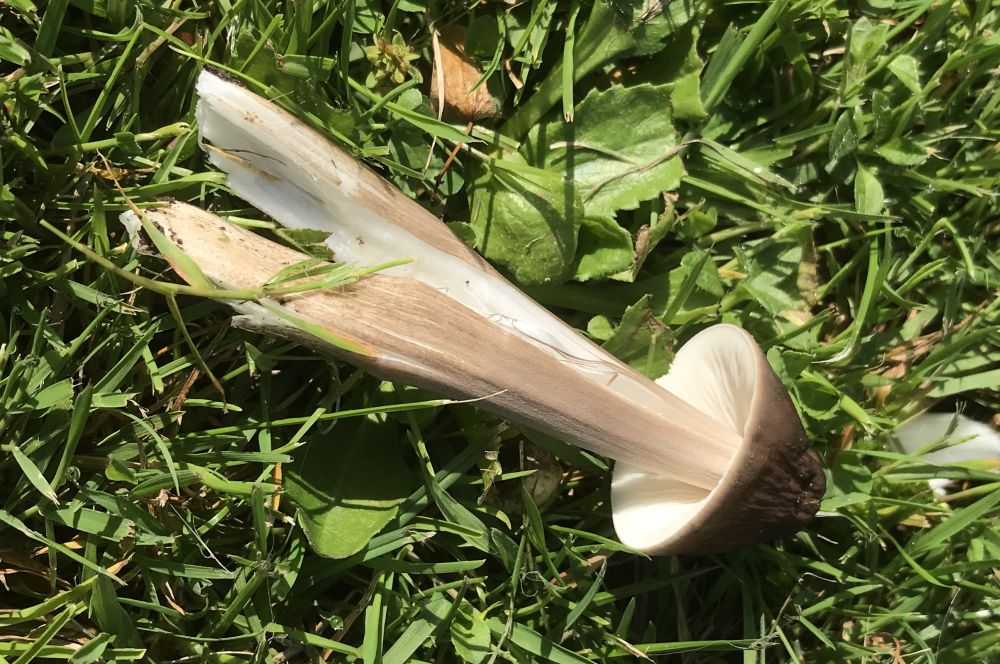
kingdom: Fungi
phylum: Basidiomycota
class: Agaricomycetes
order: Agaricales
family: Physalacriaceae
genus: Hymenopellis
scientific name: Hymenopellis radicata
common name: almindelig pælerodshat
